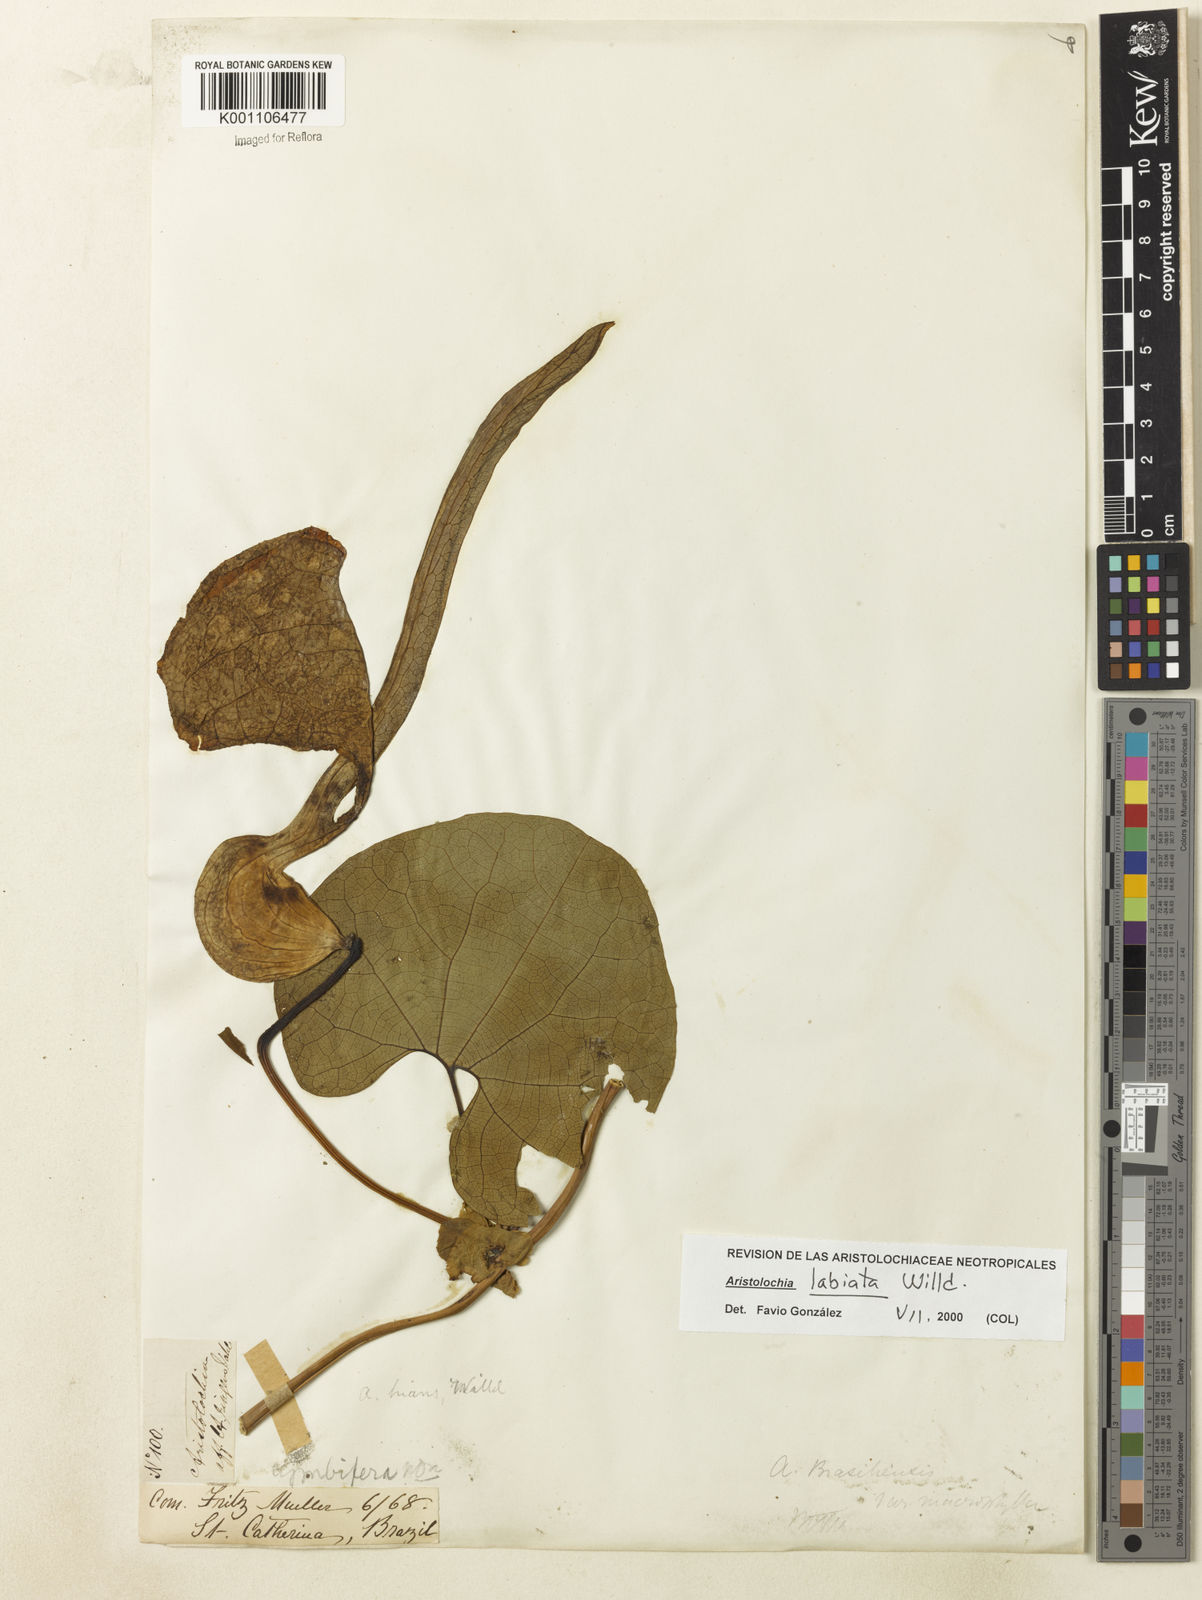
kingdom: Plantae
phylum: Tracheophyta
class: Magnoliopsida
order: Piperales
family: Aristolochiaceae
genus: Aristolochia
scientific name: Aristolochia labiata
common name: Mottled dutchman's pipe
